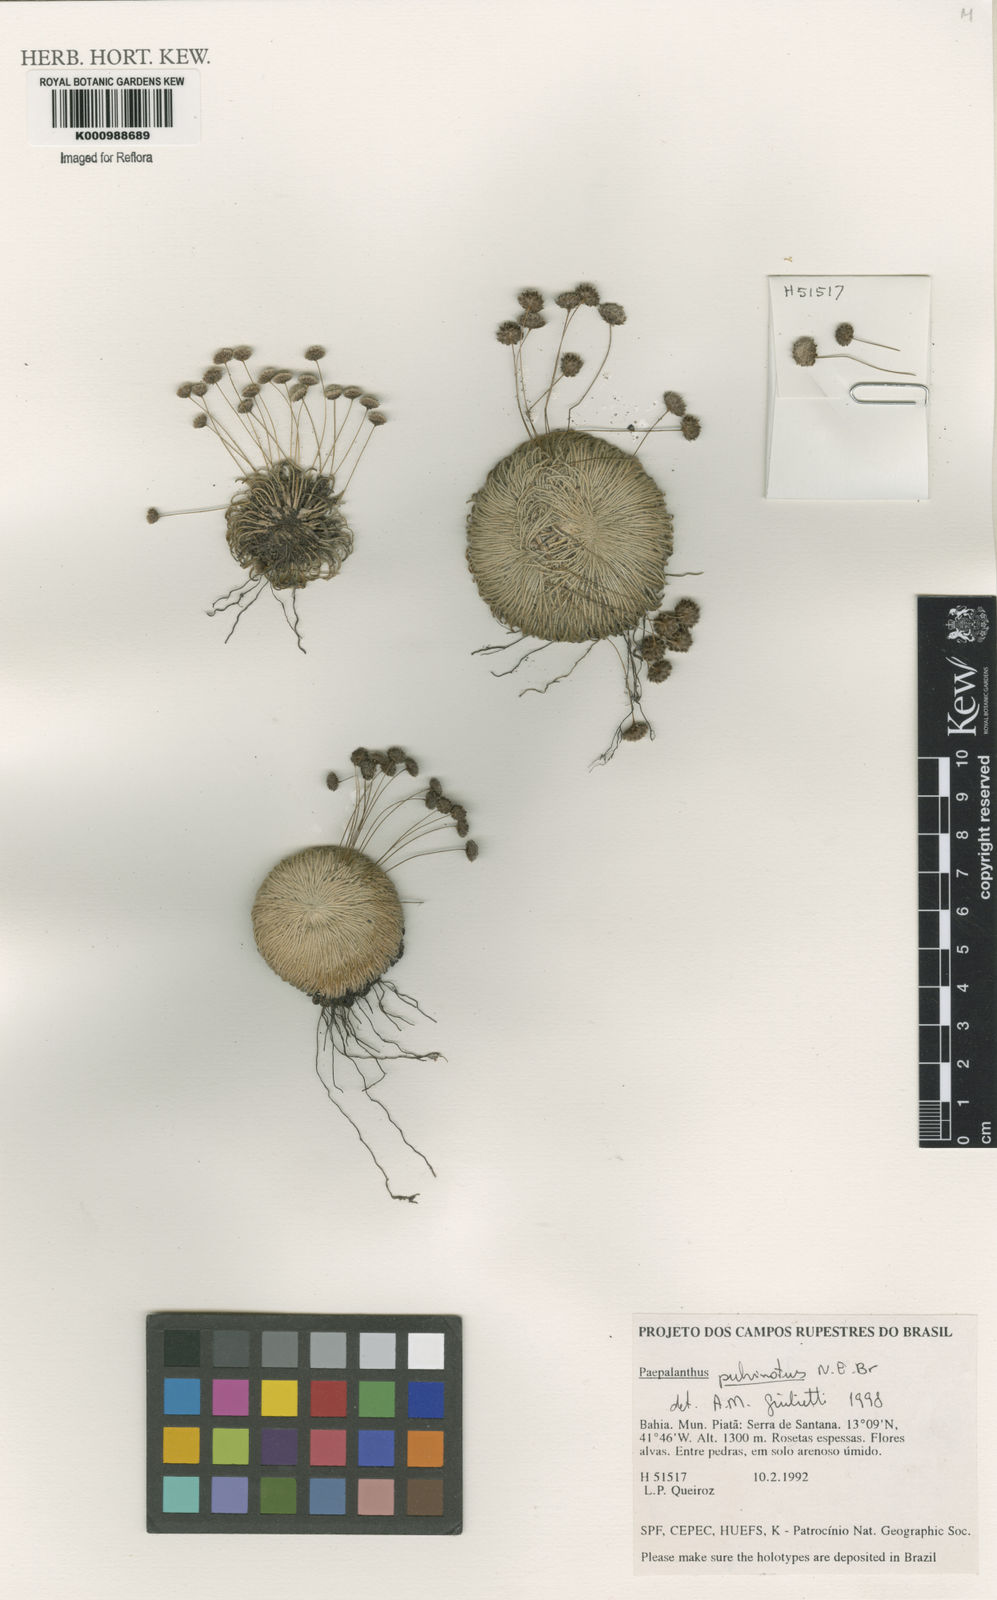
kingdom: Plantae
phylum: Tracheophyta
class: Liliopsida
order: Poales
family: Eriocaulaceae
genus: Paepalanthus
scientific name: Paepalanthus
